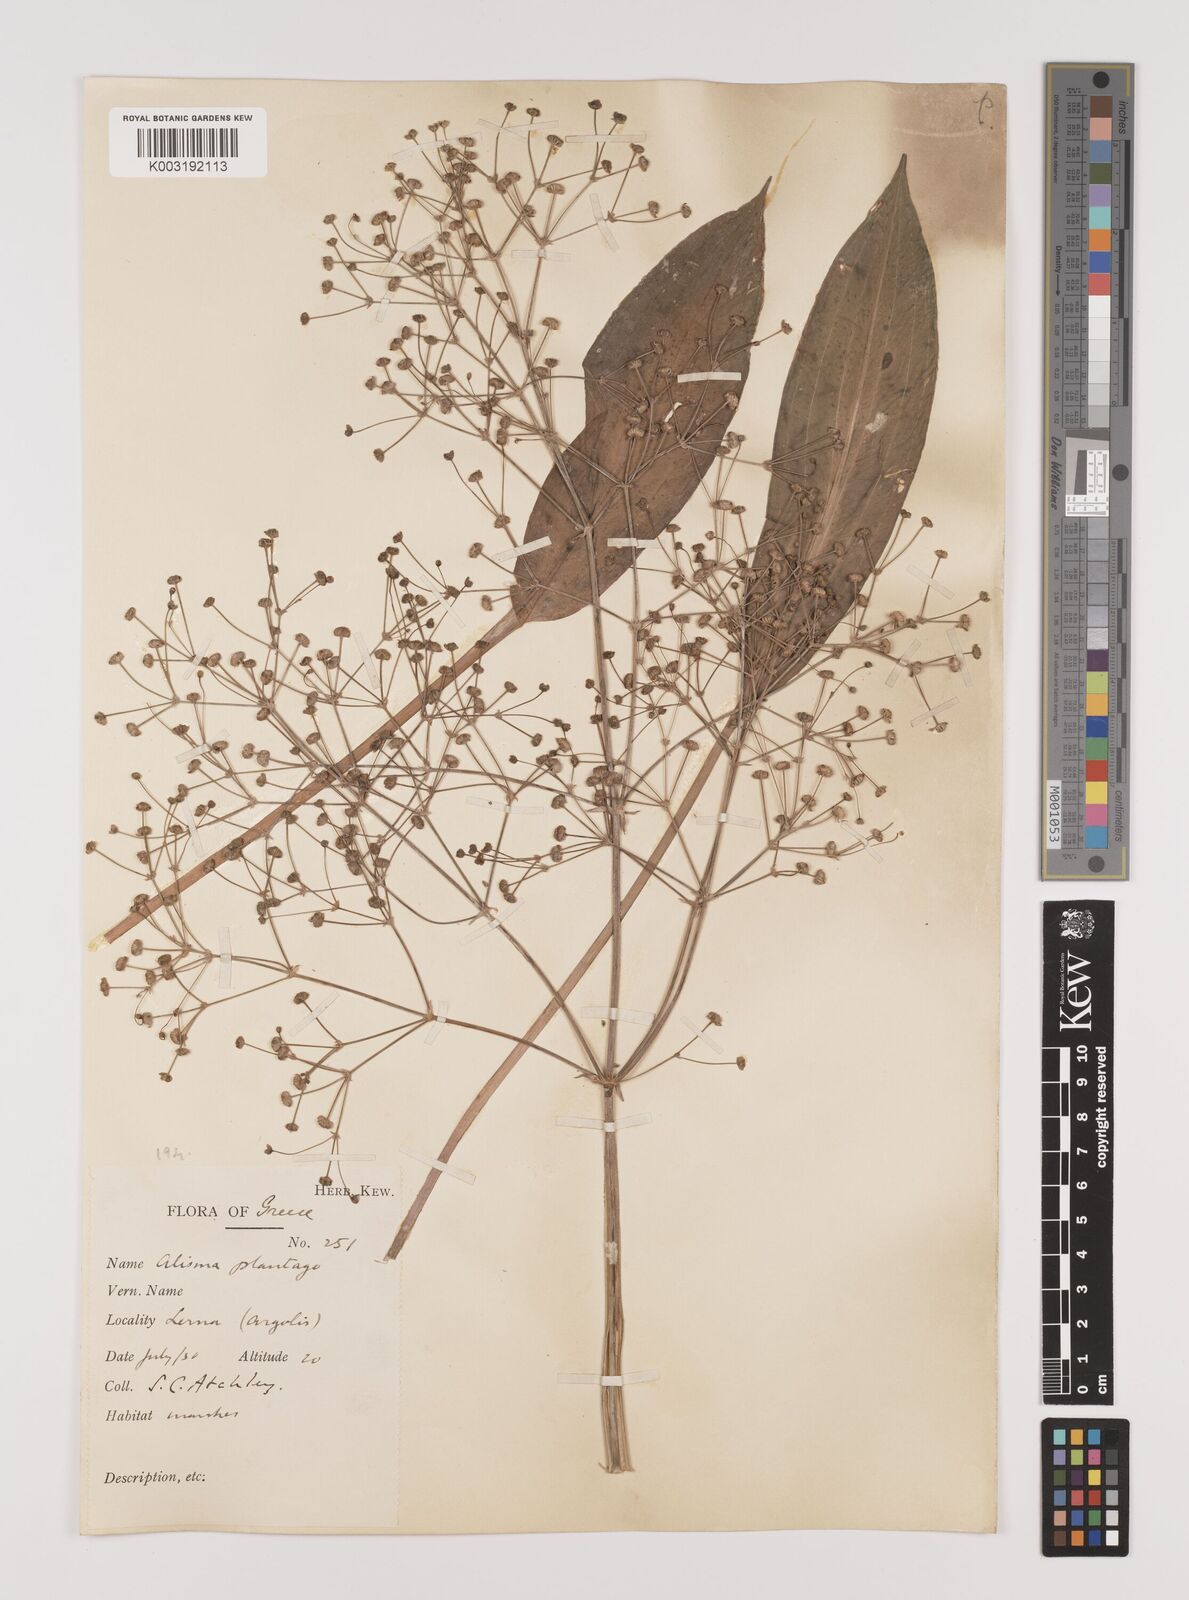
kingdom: Plantae
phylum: Tracheophyta
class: Liliopsida
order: Alismatales
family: Alismataceae
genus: Alisma
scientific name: Alisma plantago-aquatica
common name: Water-plantain
